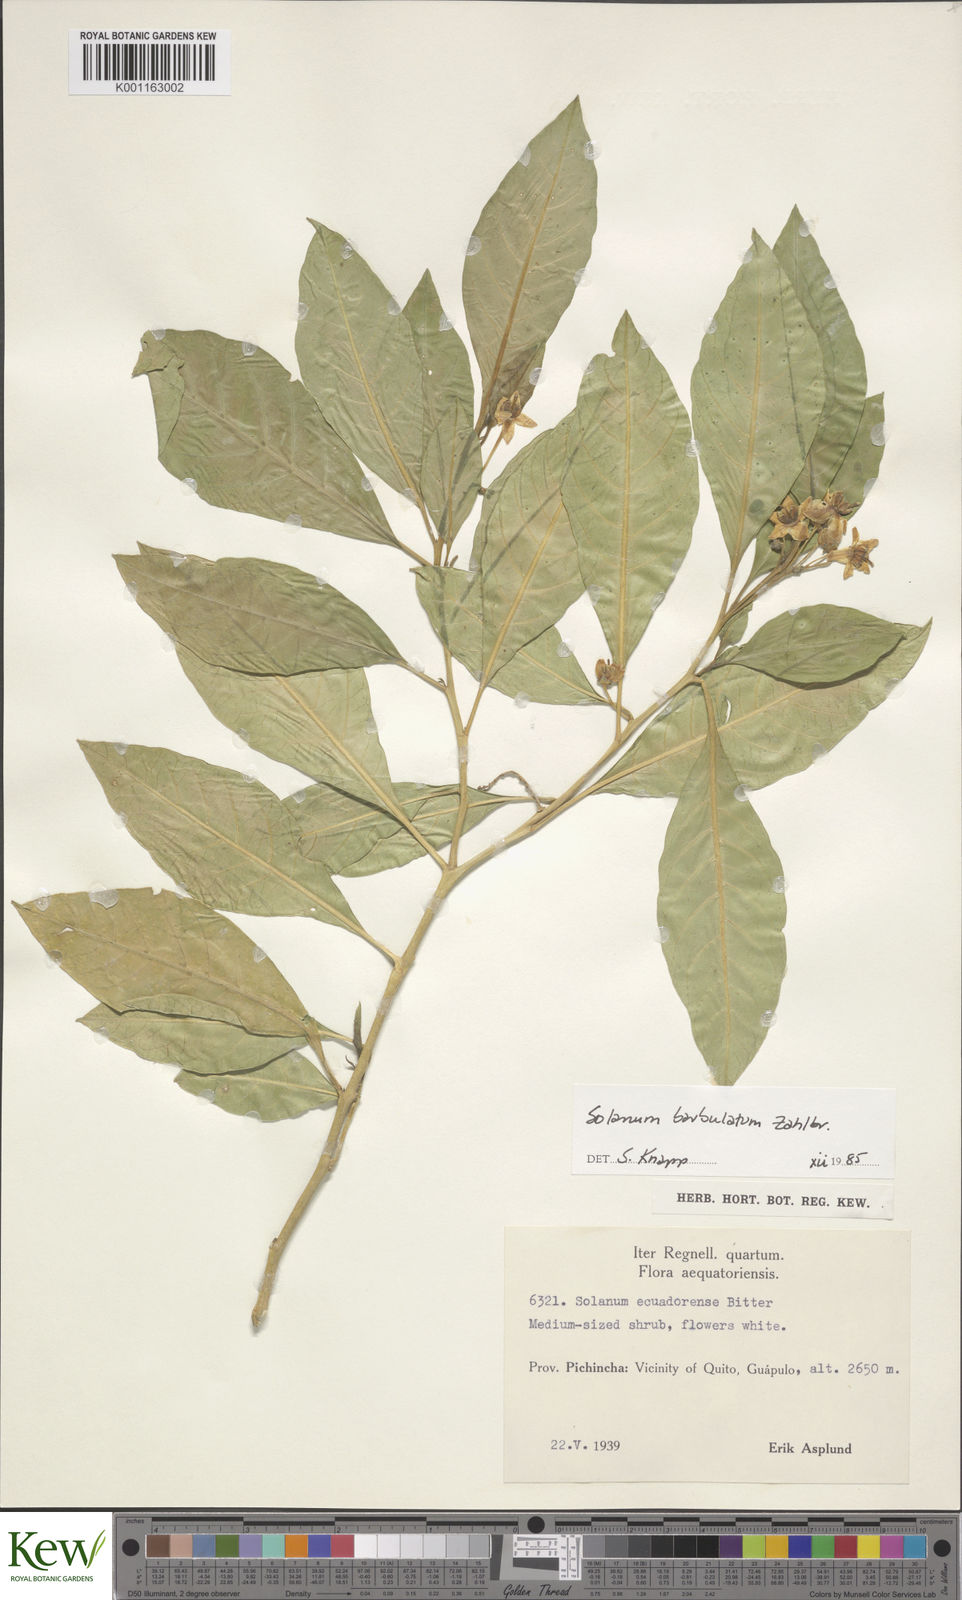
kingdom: Plantae
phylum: Tracheophyta
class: Magnoliopsida
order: Solanales
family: Solanaceae
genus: Solanum
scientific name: Solanum barbulatum
